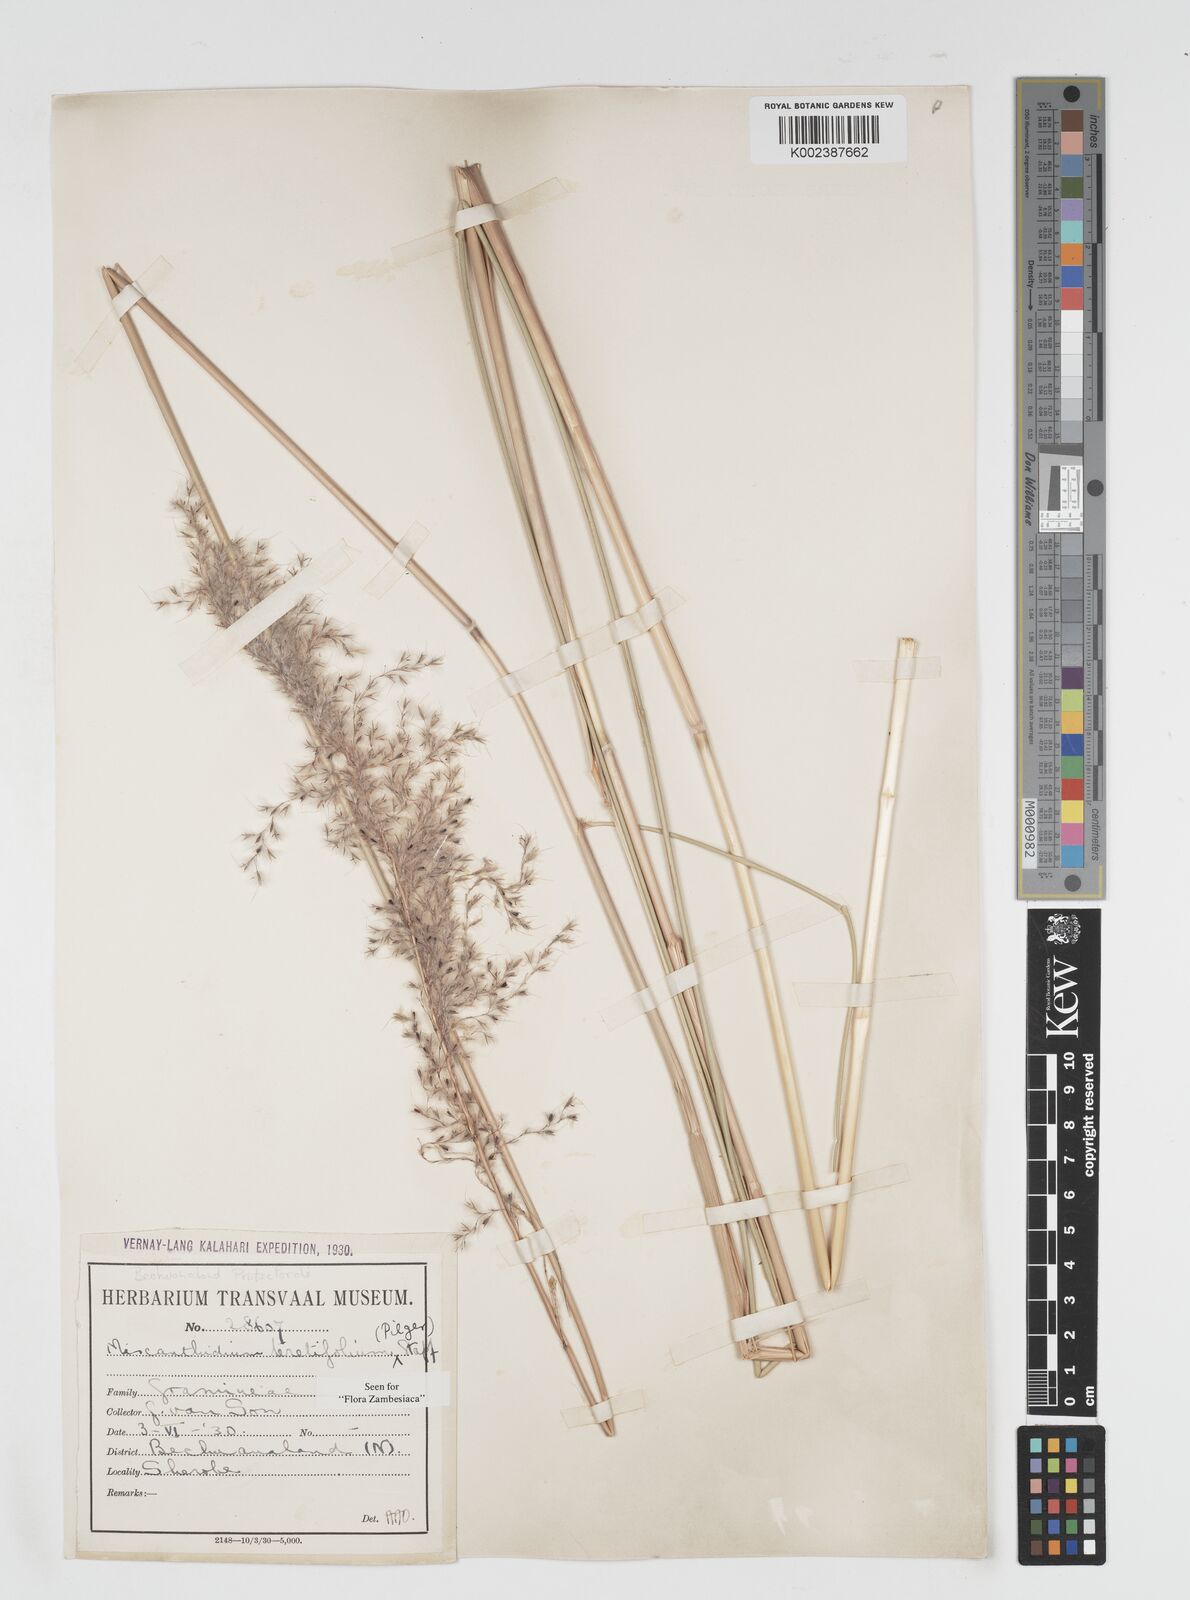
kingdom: Plantae
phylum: Tracheophyta
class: Liliopsida
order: Poales
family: Poaceae
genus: Miscanthidium
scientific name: Miscanthidium junceum
